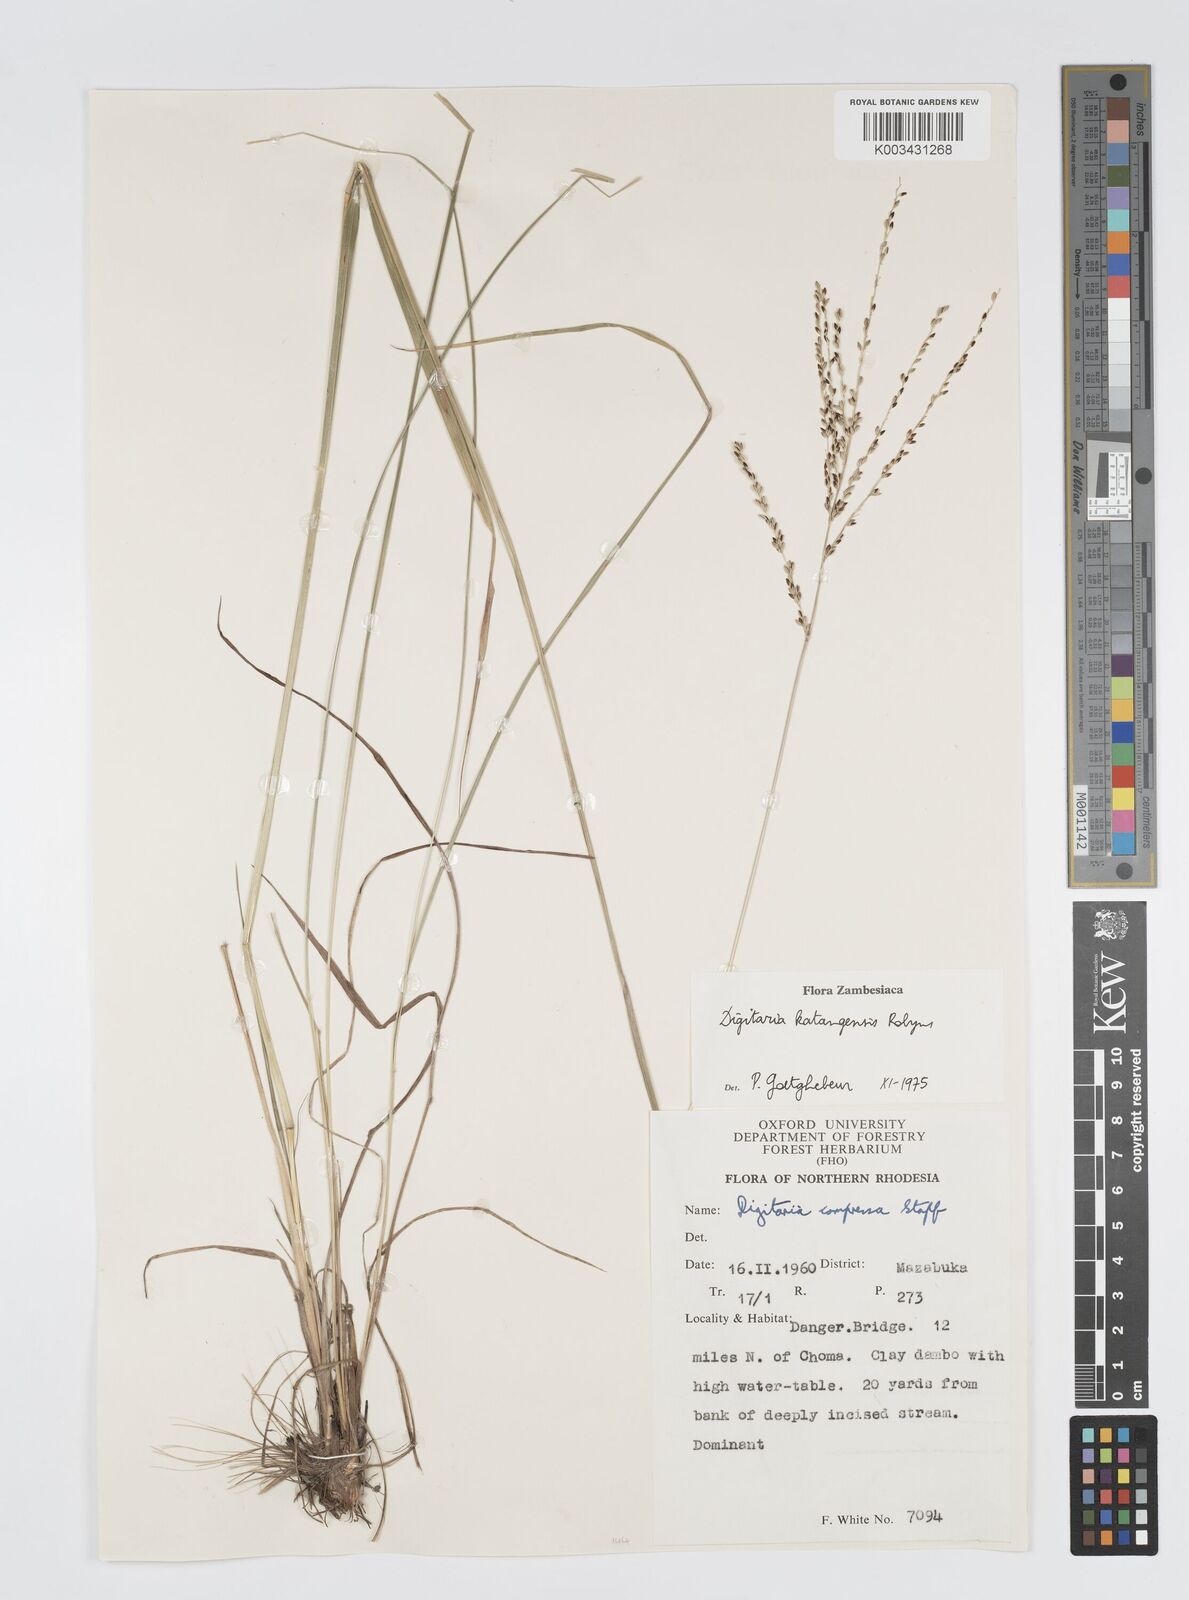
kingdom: Plantae
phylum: Tracheophyta
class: Liliopsida
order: Poales
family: Poaceae
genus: Digitaria
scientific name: Digitaria compressa
